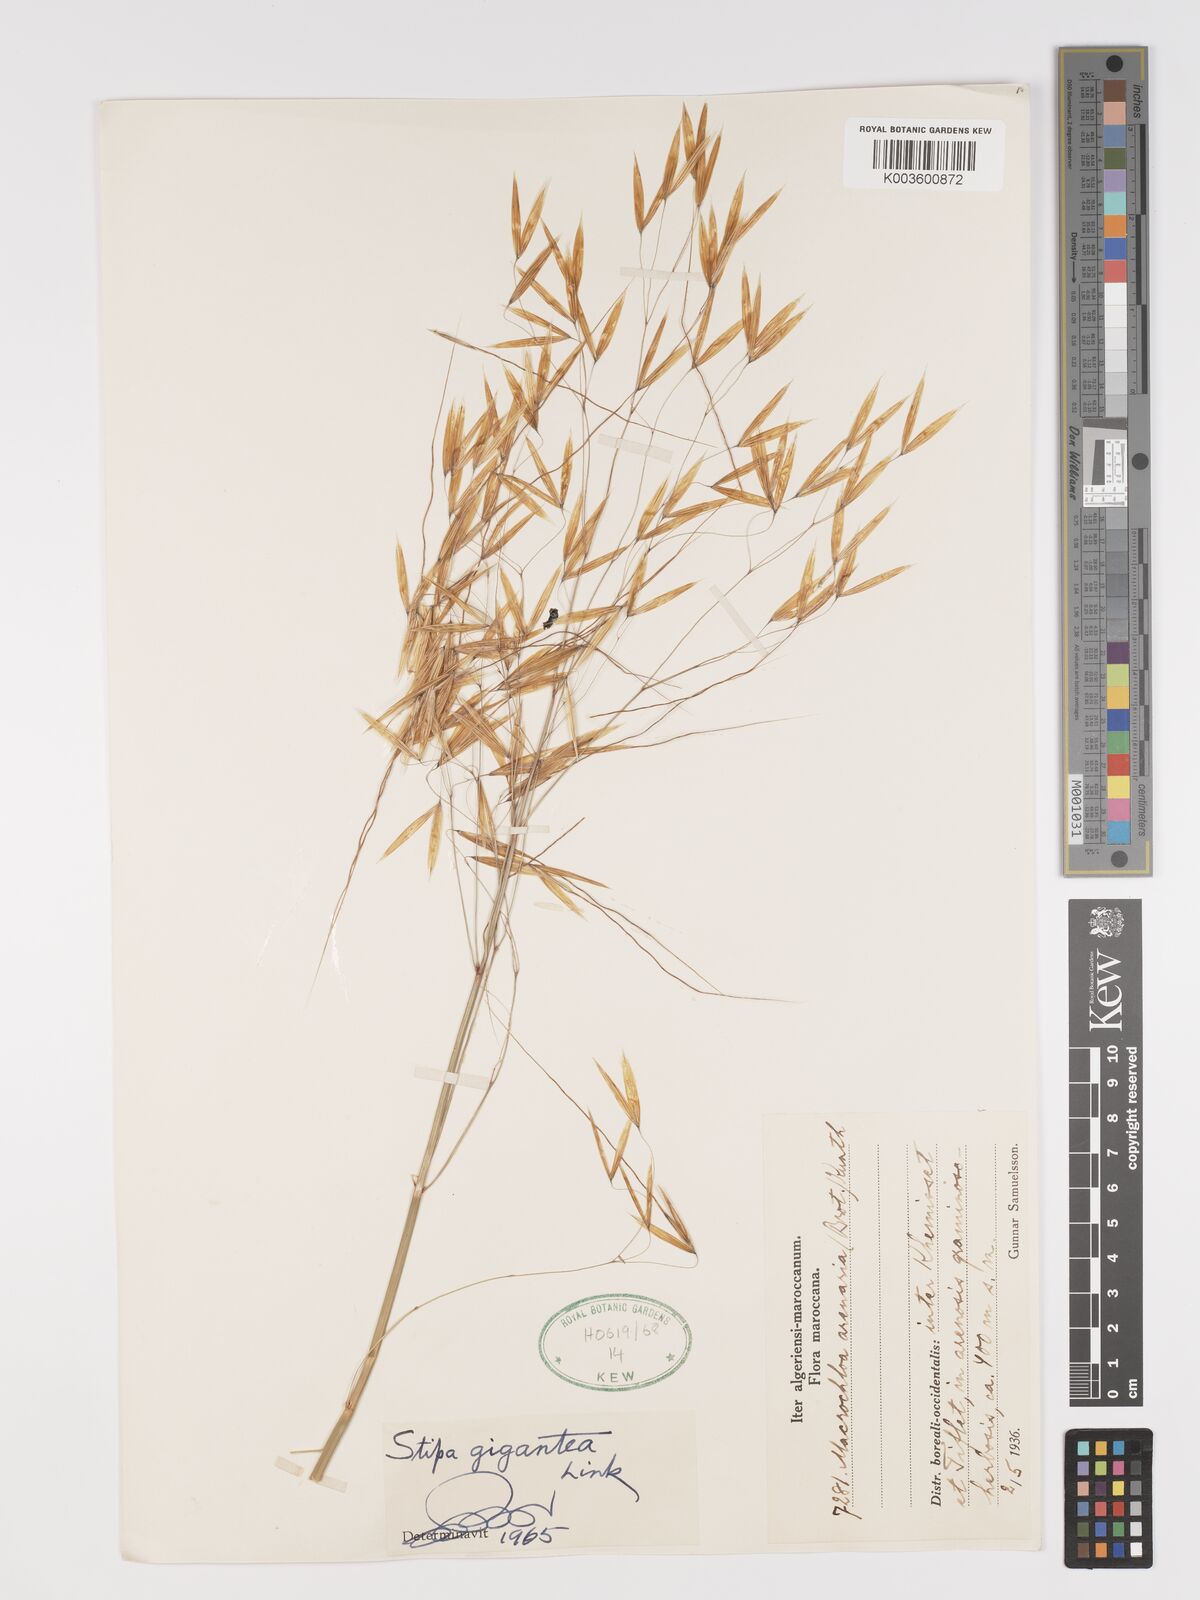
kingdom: Plantae
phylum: Tracheophyta
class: Liliopsida
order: Poales
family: Poaceae
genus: Stipa
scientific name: Stipa lagascae
